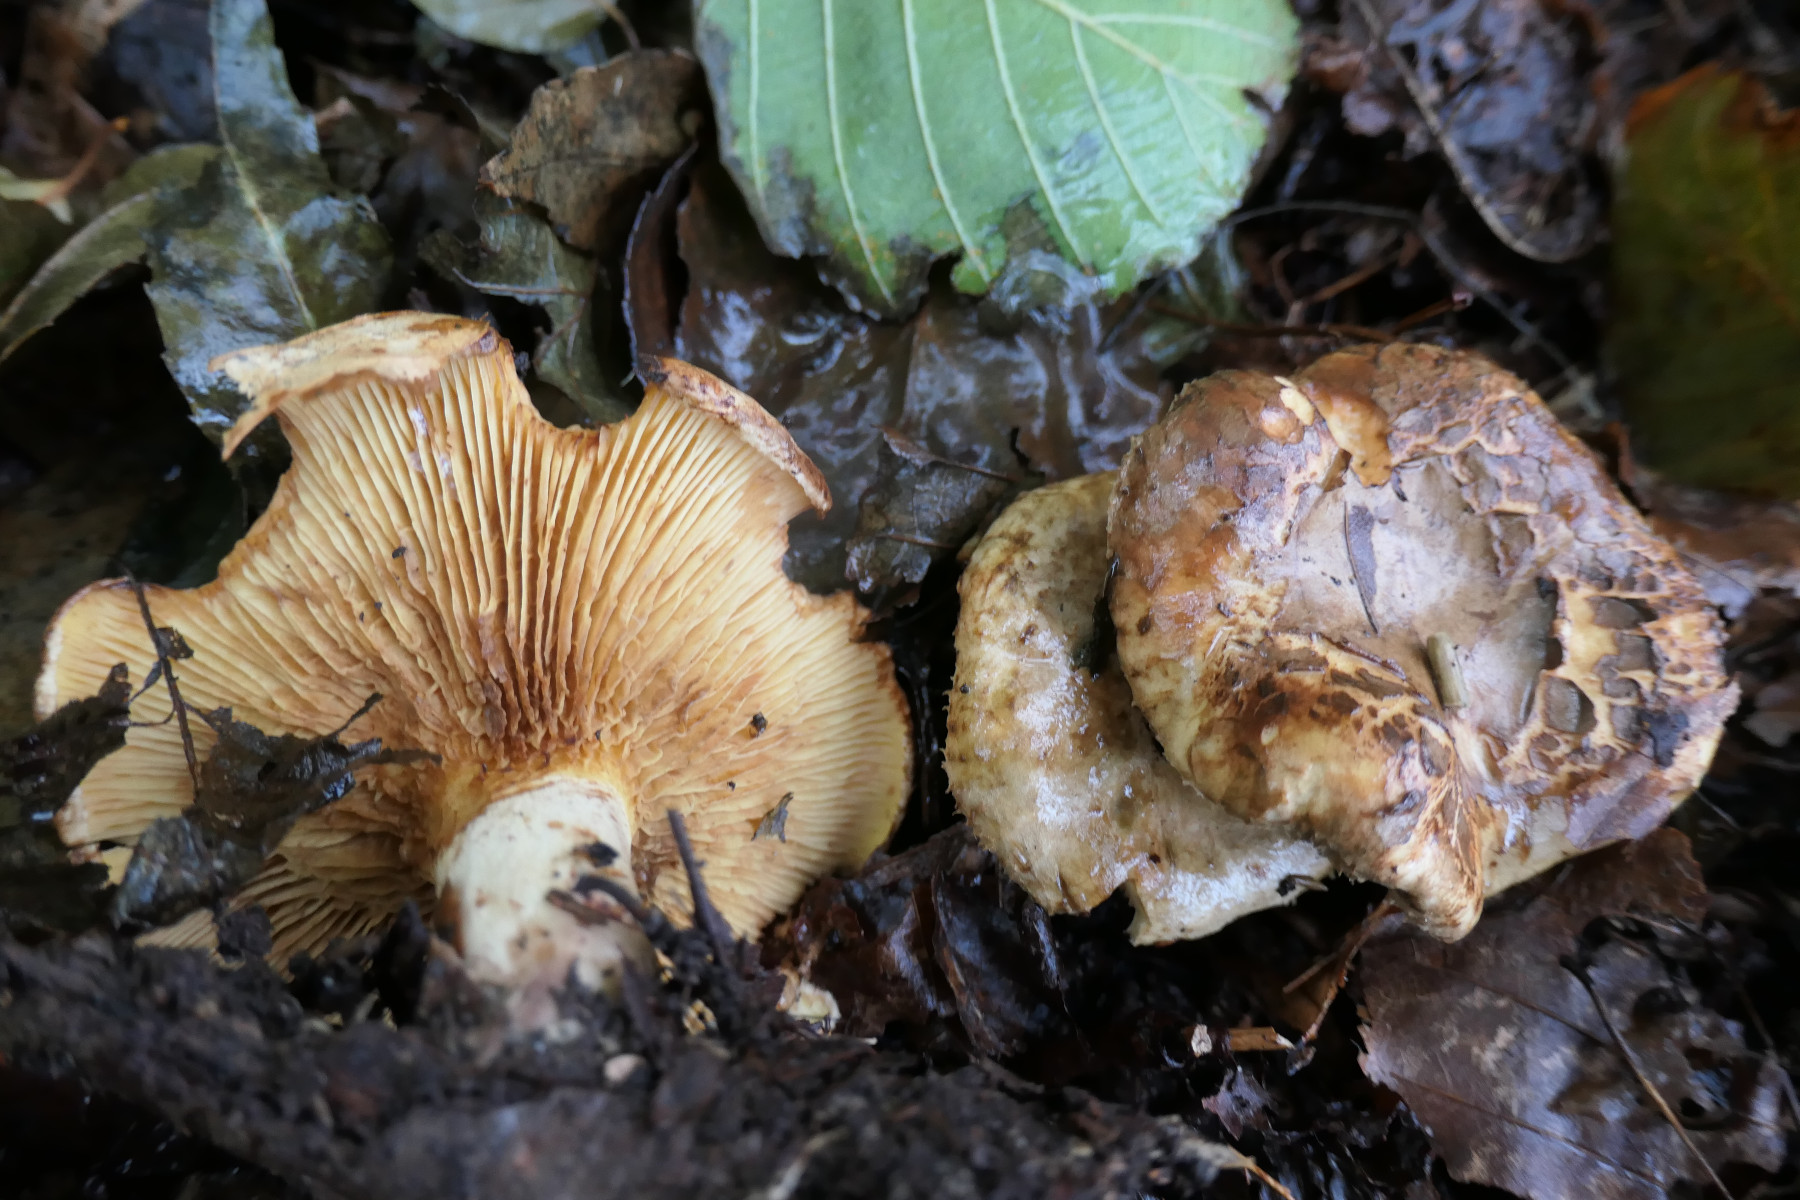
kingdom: Fungi
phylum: Basidiomycota
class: Agaricomycetes
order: Boletales
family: Paxillaceae
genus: Paxillus
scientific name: Paxillus rubicundulus
